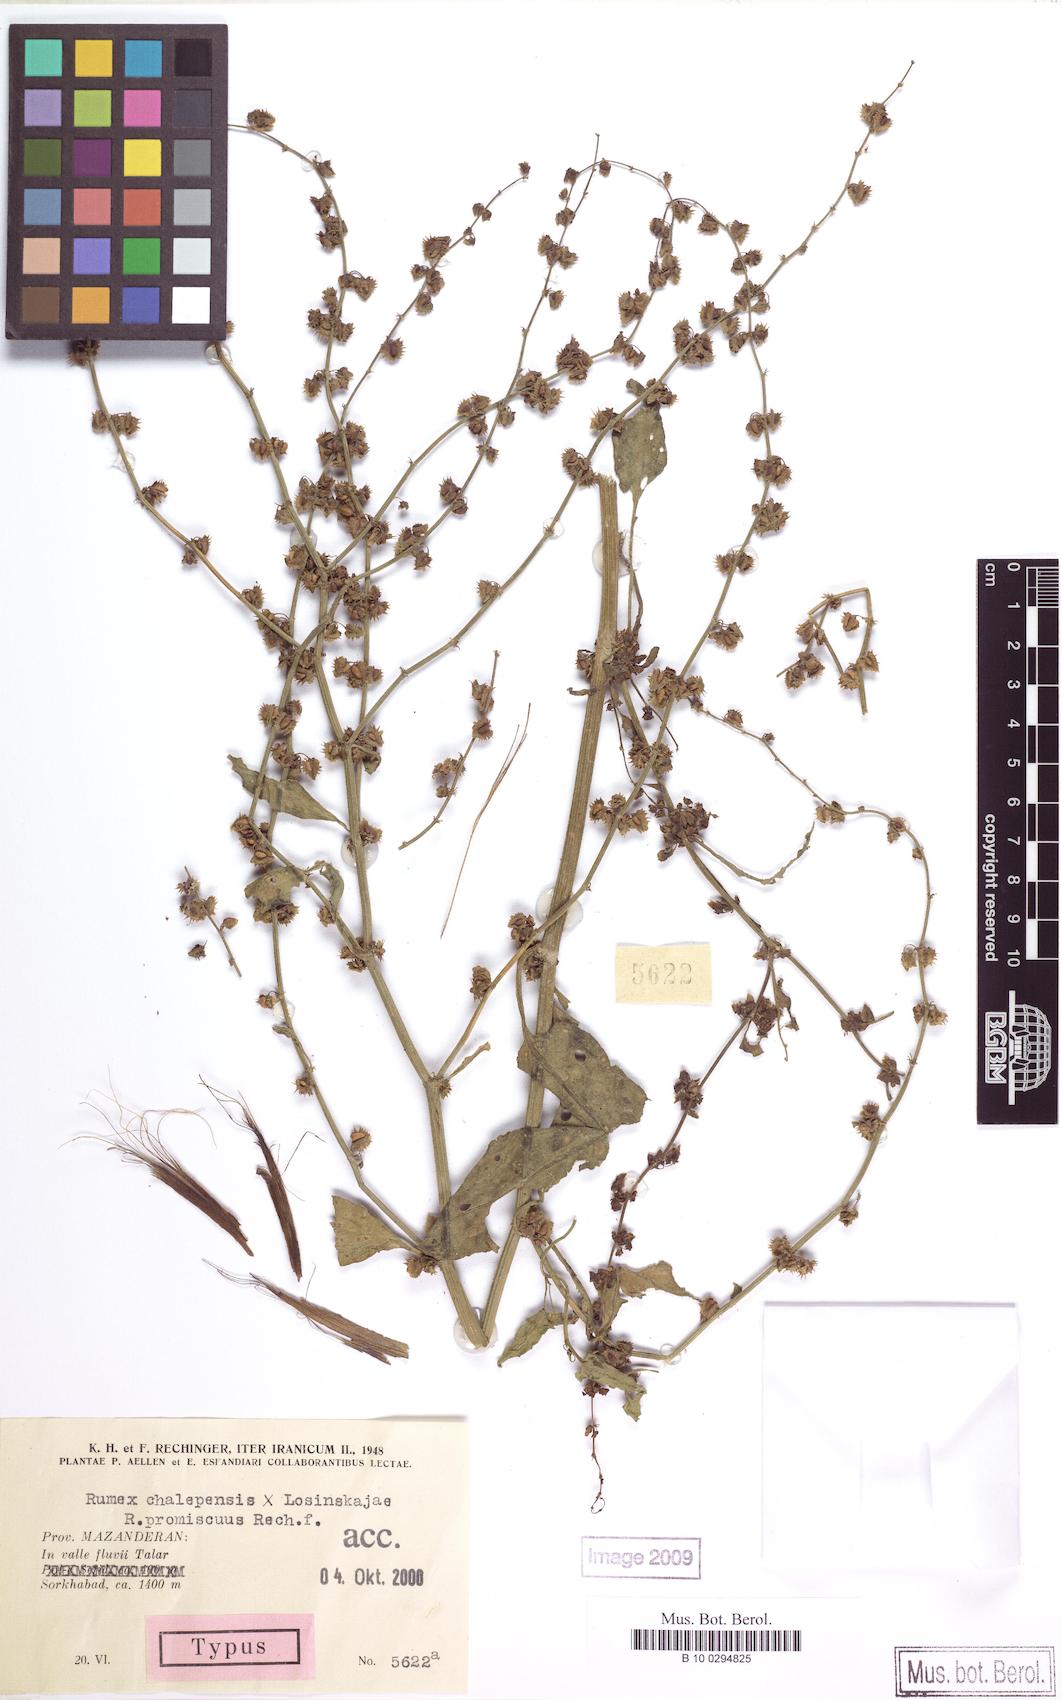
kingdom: Plantae
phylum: Tracheophyta
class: Magnoliopsida
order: Caryophyllales
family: Polygonaceae
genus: Rumex
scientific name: Rumex chalepensis
